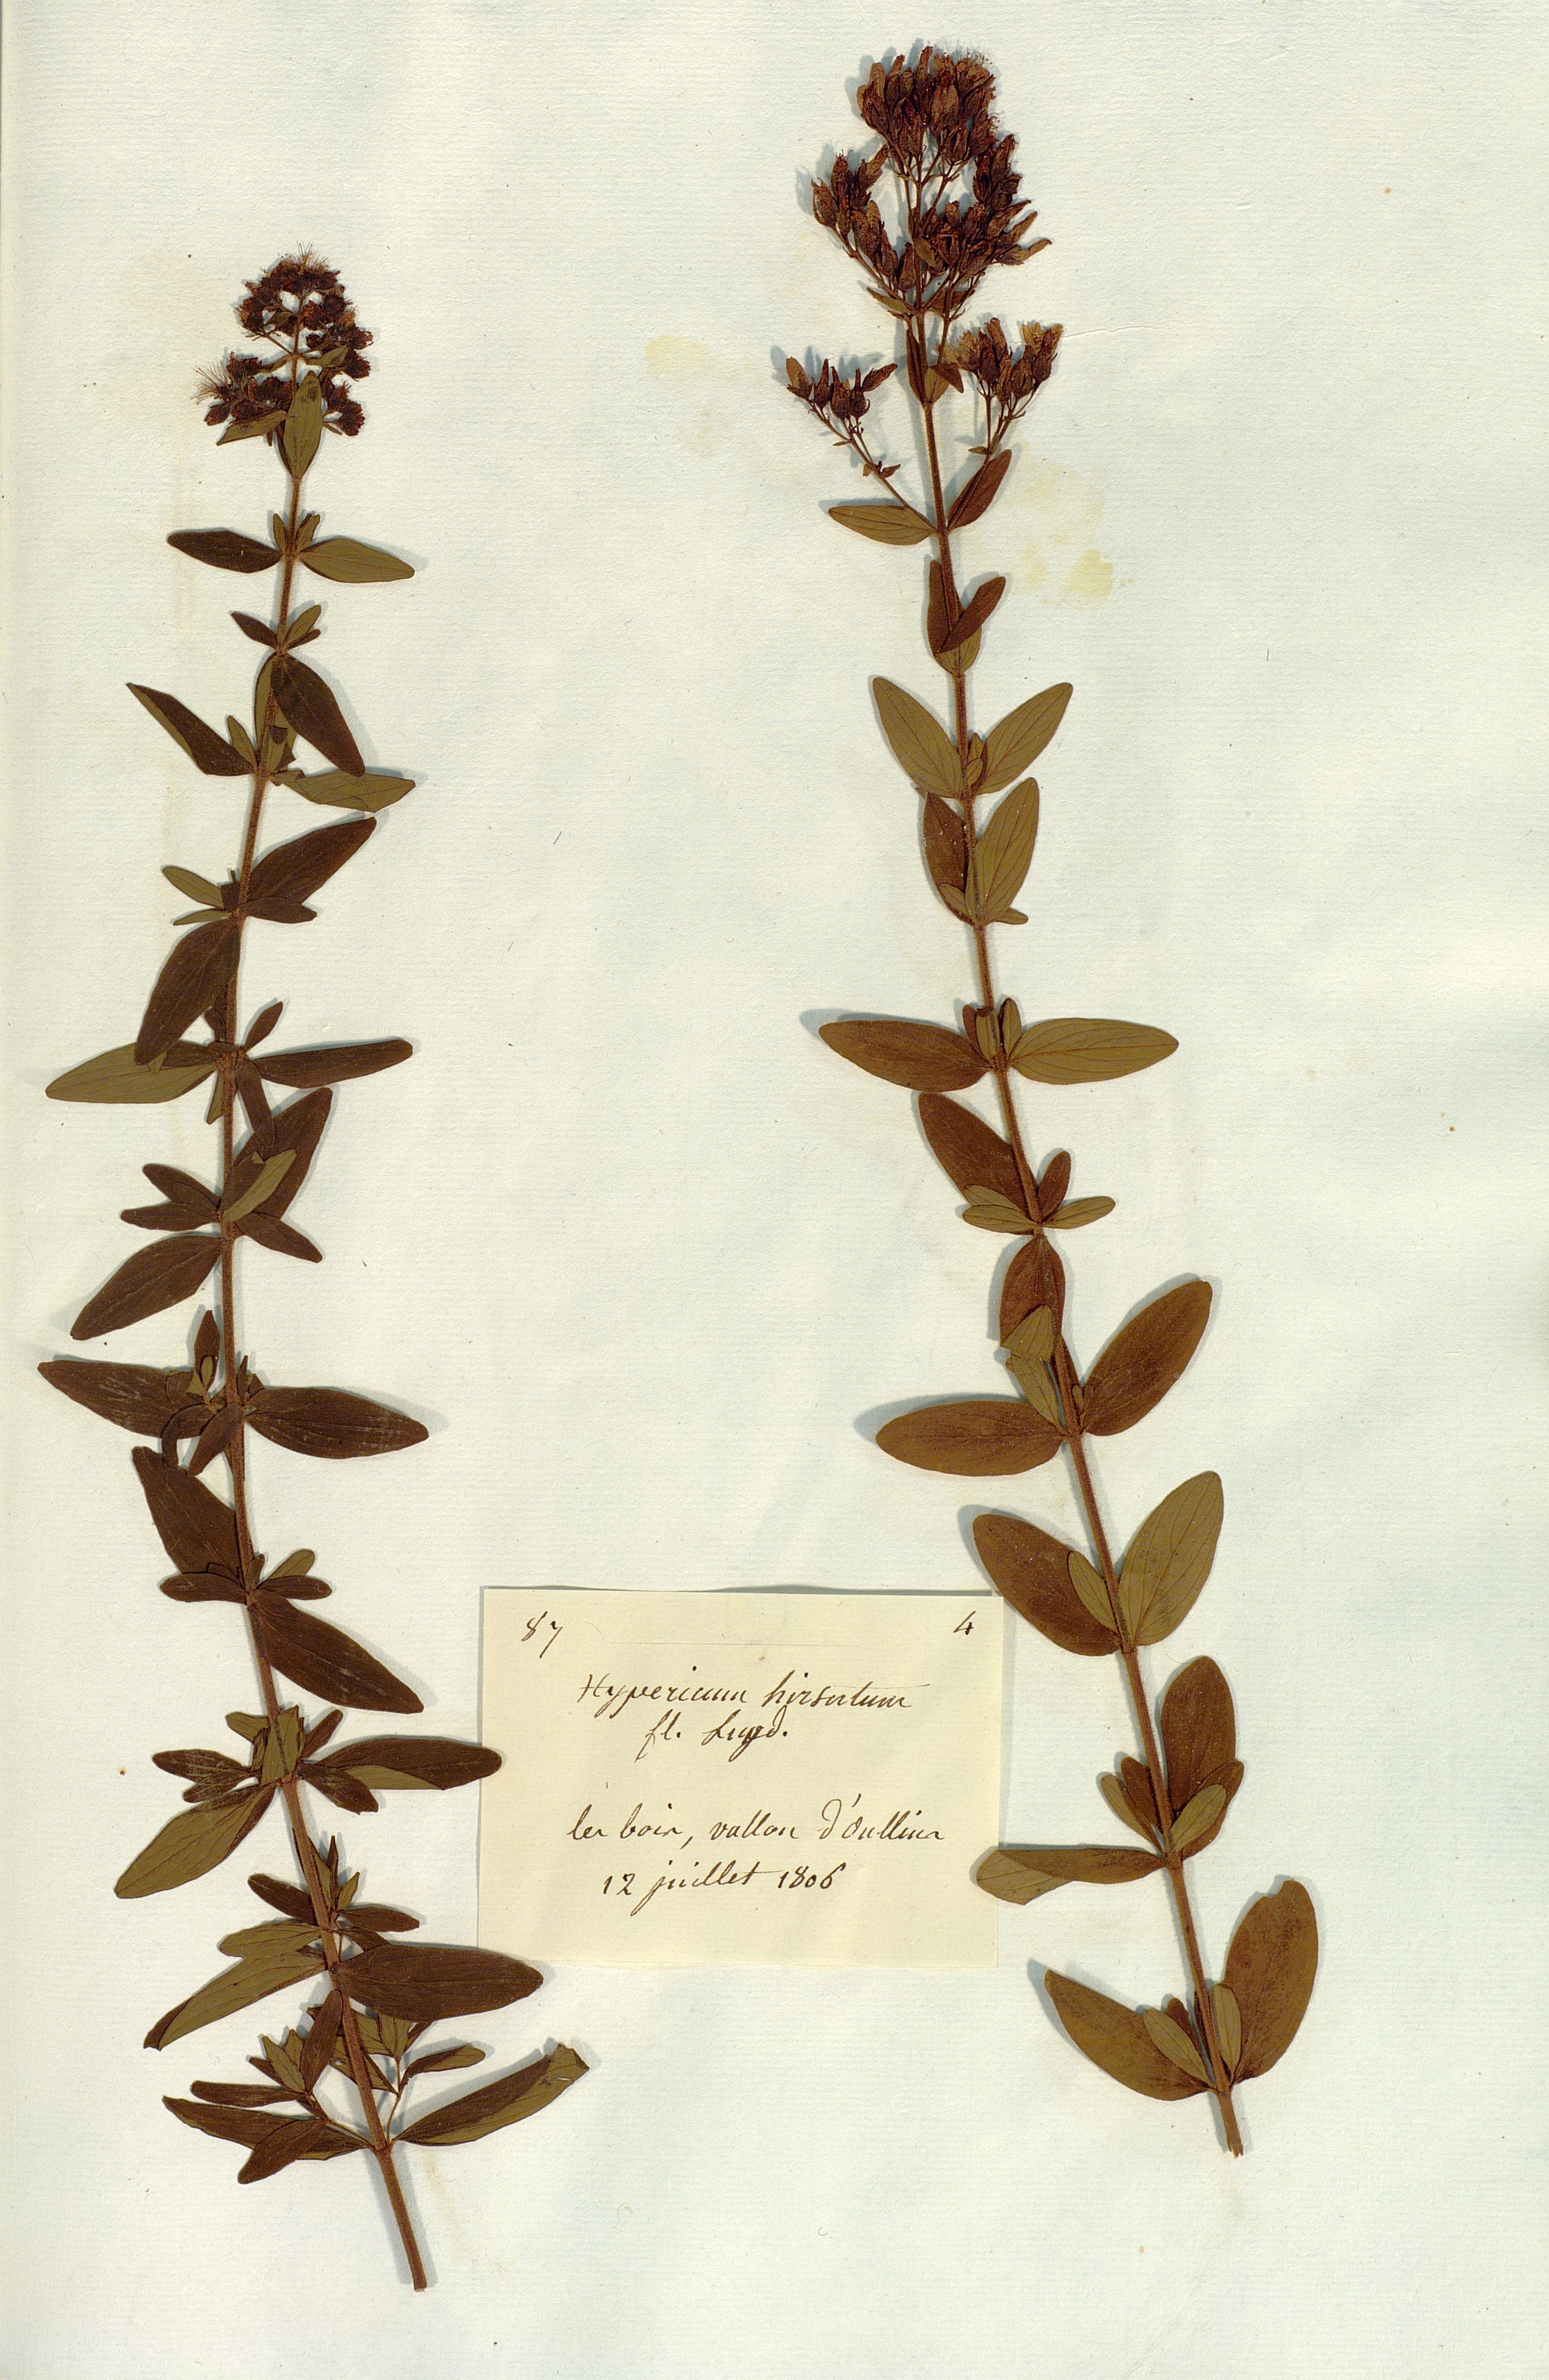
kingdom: Plantae
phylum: Tracheophyta
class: Magnoliopsida
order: Malpighiales
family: Hypericaceae
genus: Hypericum
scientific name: Hypericum hirsutum
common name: Hairy st. john's-wort
